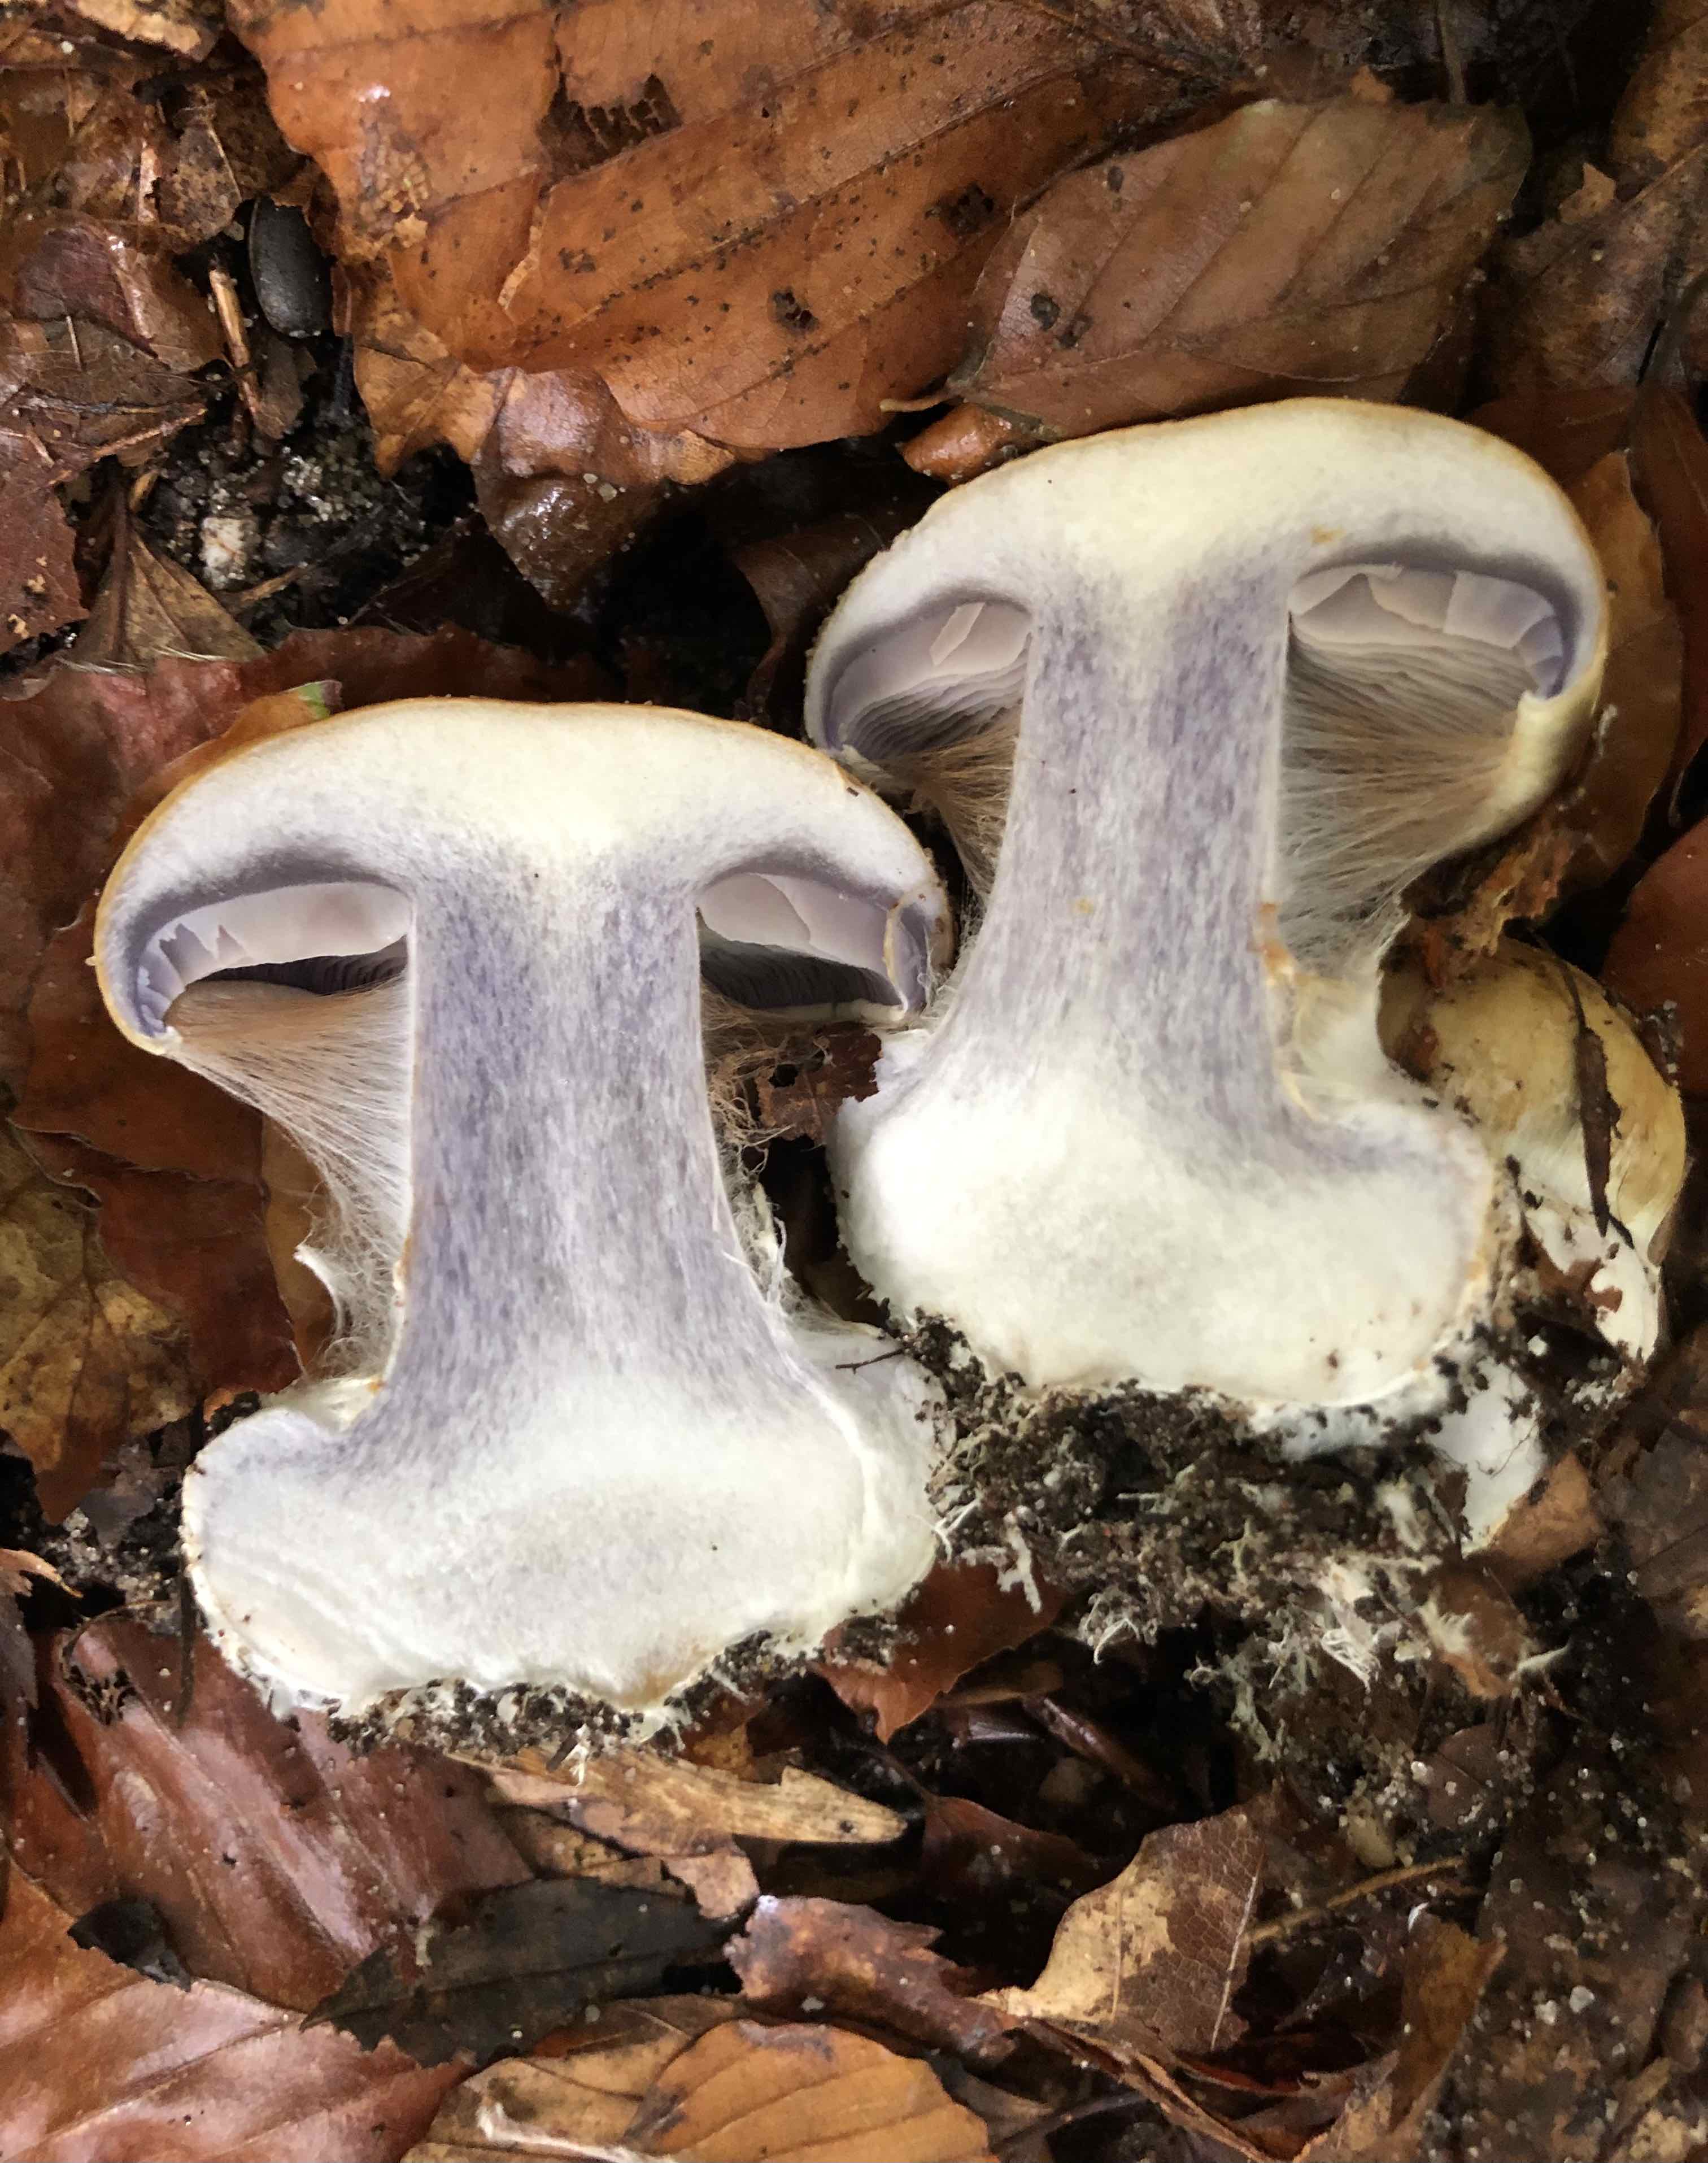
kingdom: Fungi
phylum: Basidiomycota
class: Agaricomycetes
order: Agaricales
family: Cortinariaceae
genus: Cortinarius
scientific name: Cortinarius anserinus
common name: bøge-slørhat
